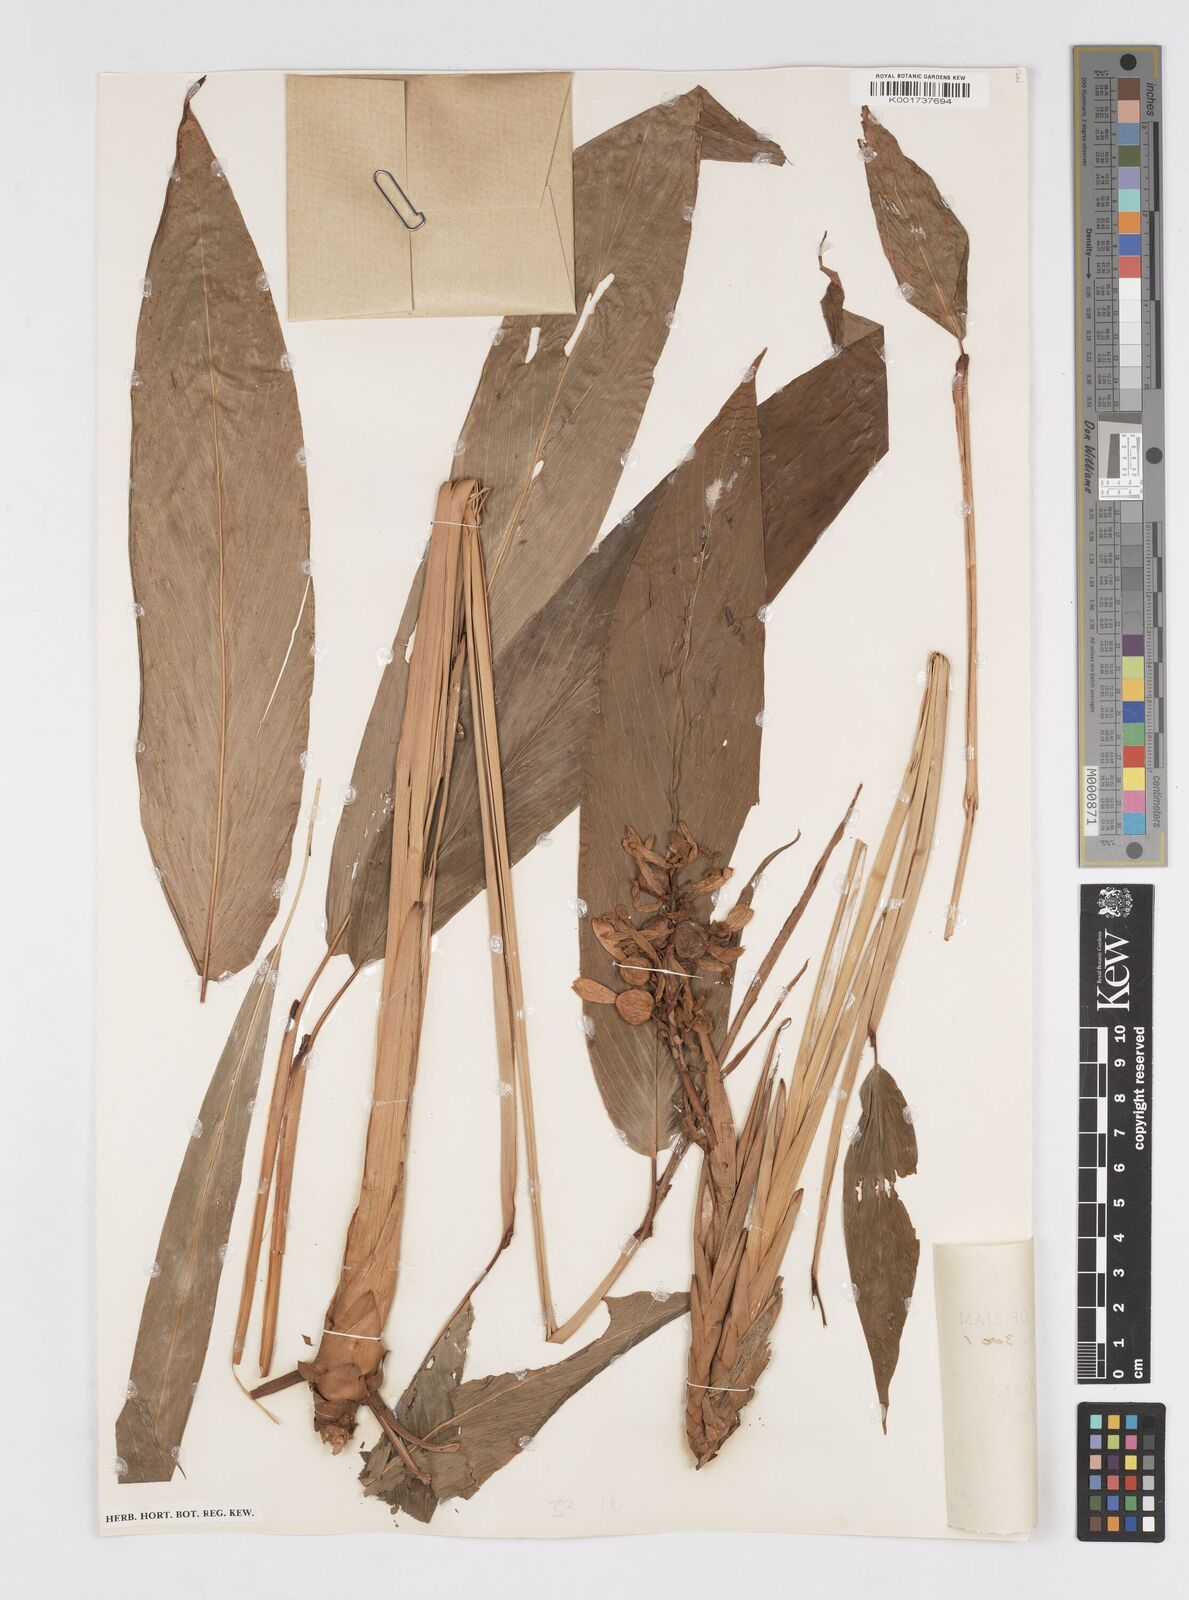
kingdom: Plantae
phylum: Tracheophyta
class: Liliopsida
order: Zingiberales
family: Zingiberaceae
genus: Alpinia
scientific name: Alpinia
